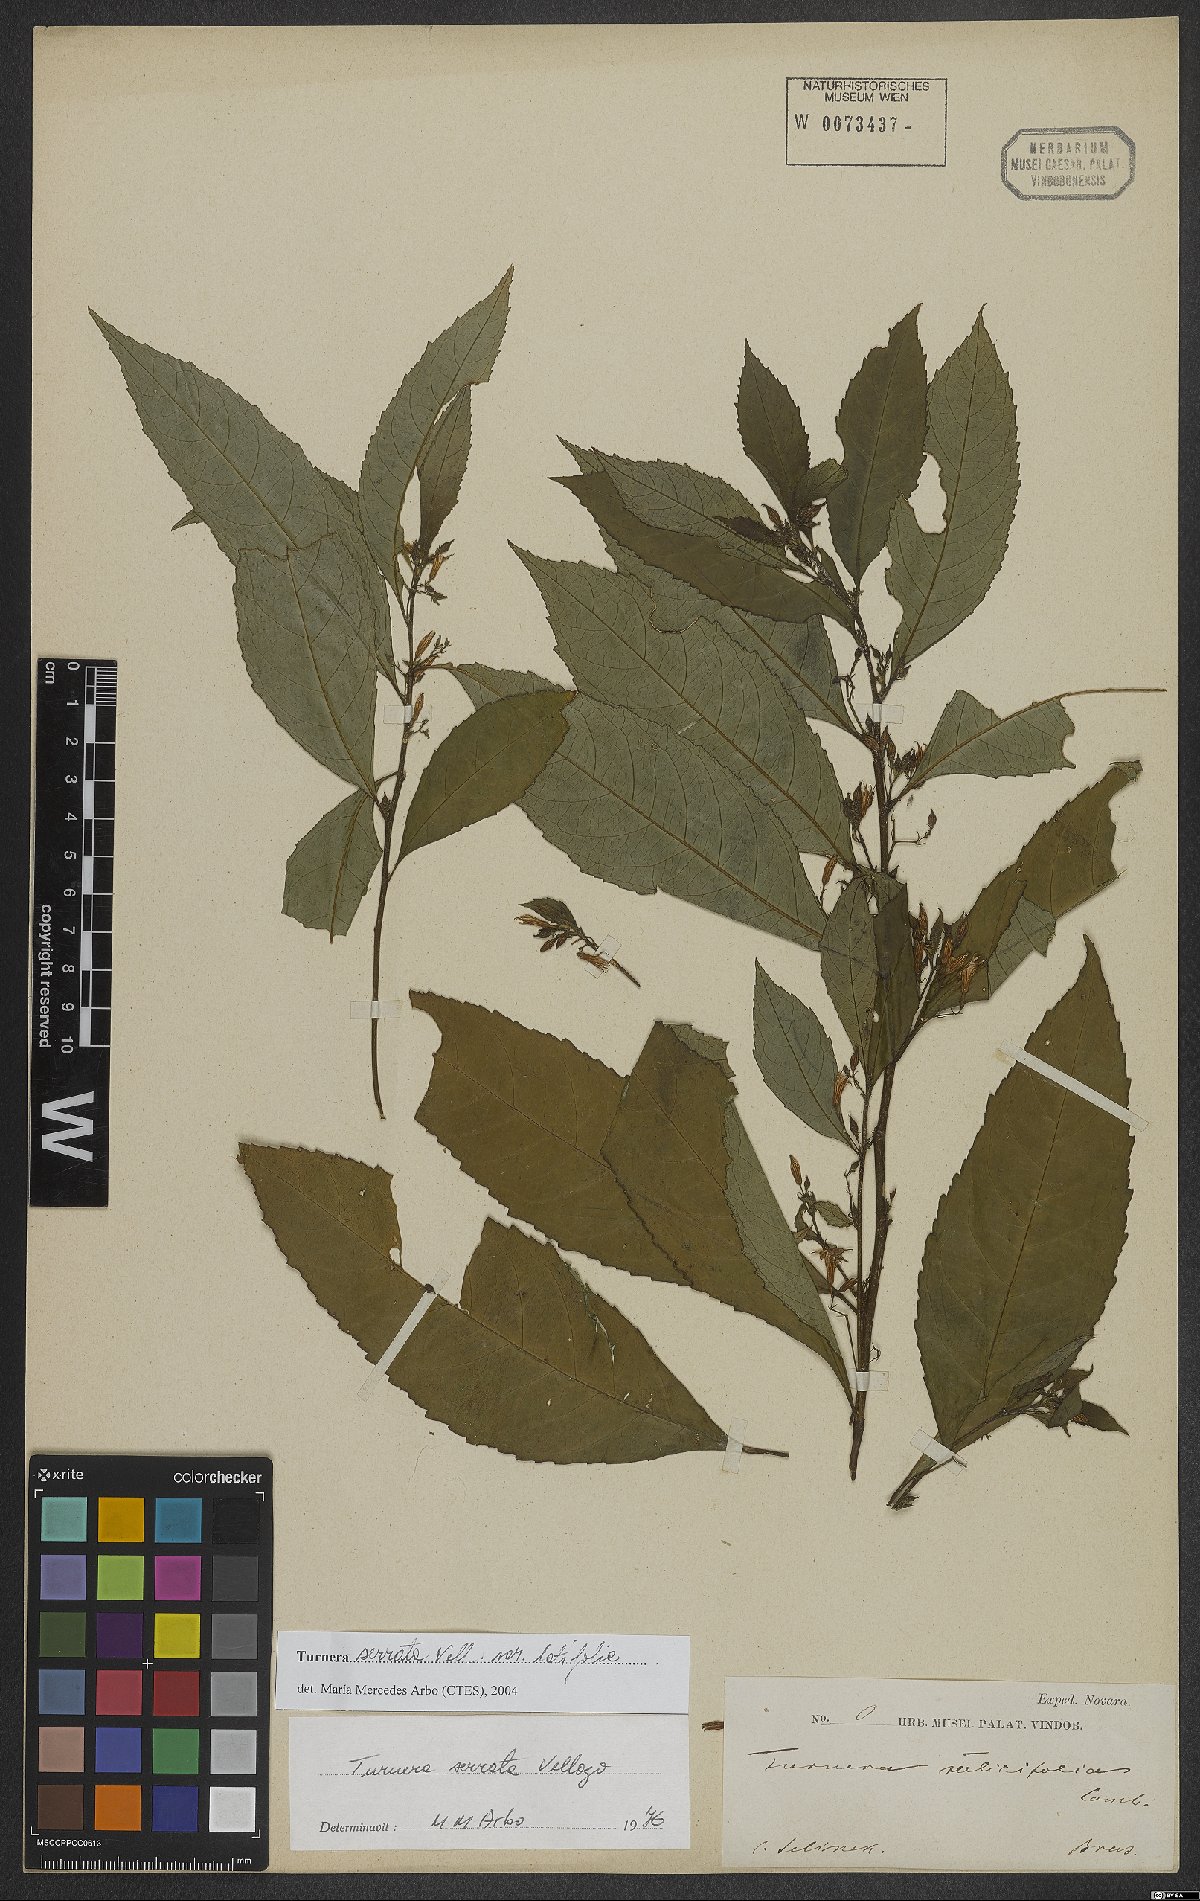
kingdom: Plantae
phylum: Tracheophyta
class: Magnoliopsida
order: Malpighiales
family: Turneraceae
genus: Turnera
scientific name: Turnera serrata
